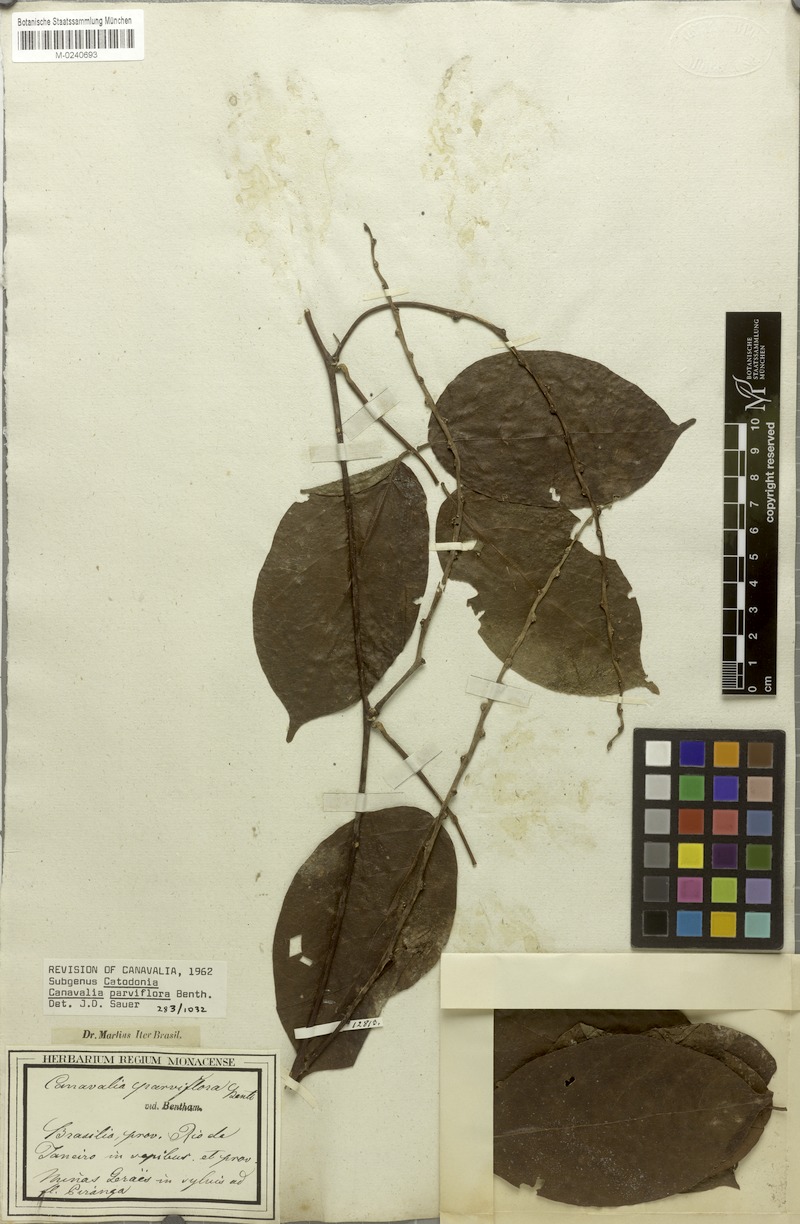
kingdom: Plantae
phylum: Tracheophyta
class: Magnoliopsida
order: Fabales
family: Fabaceae
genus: Canavalia
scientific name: Canavalia parviflora
